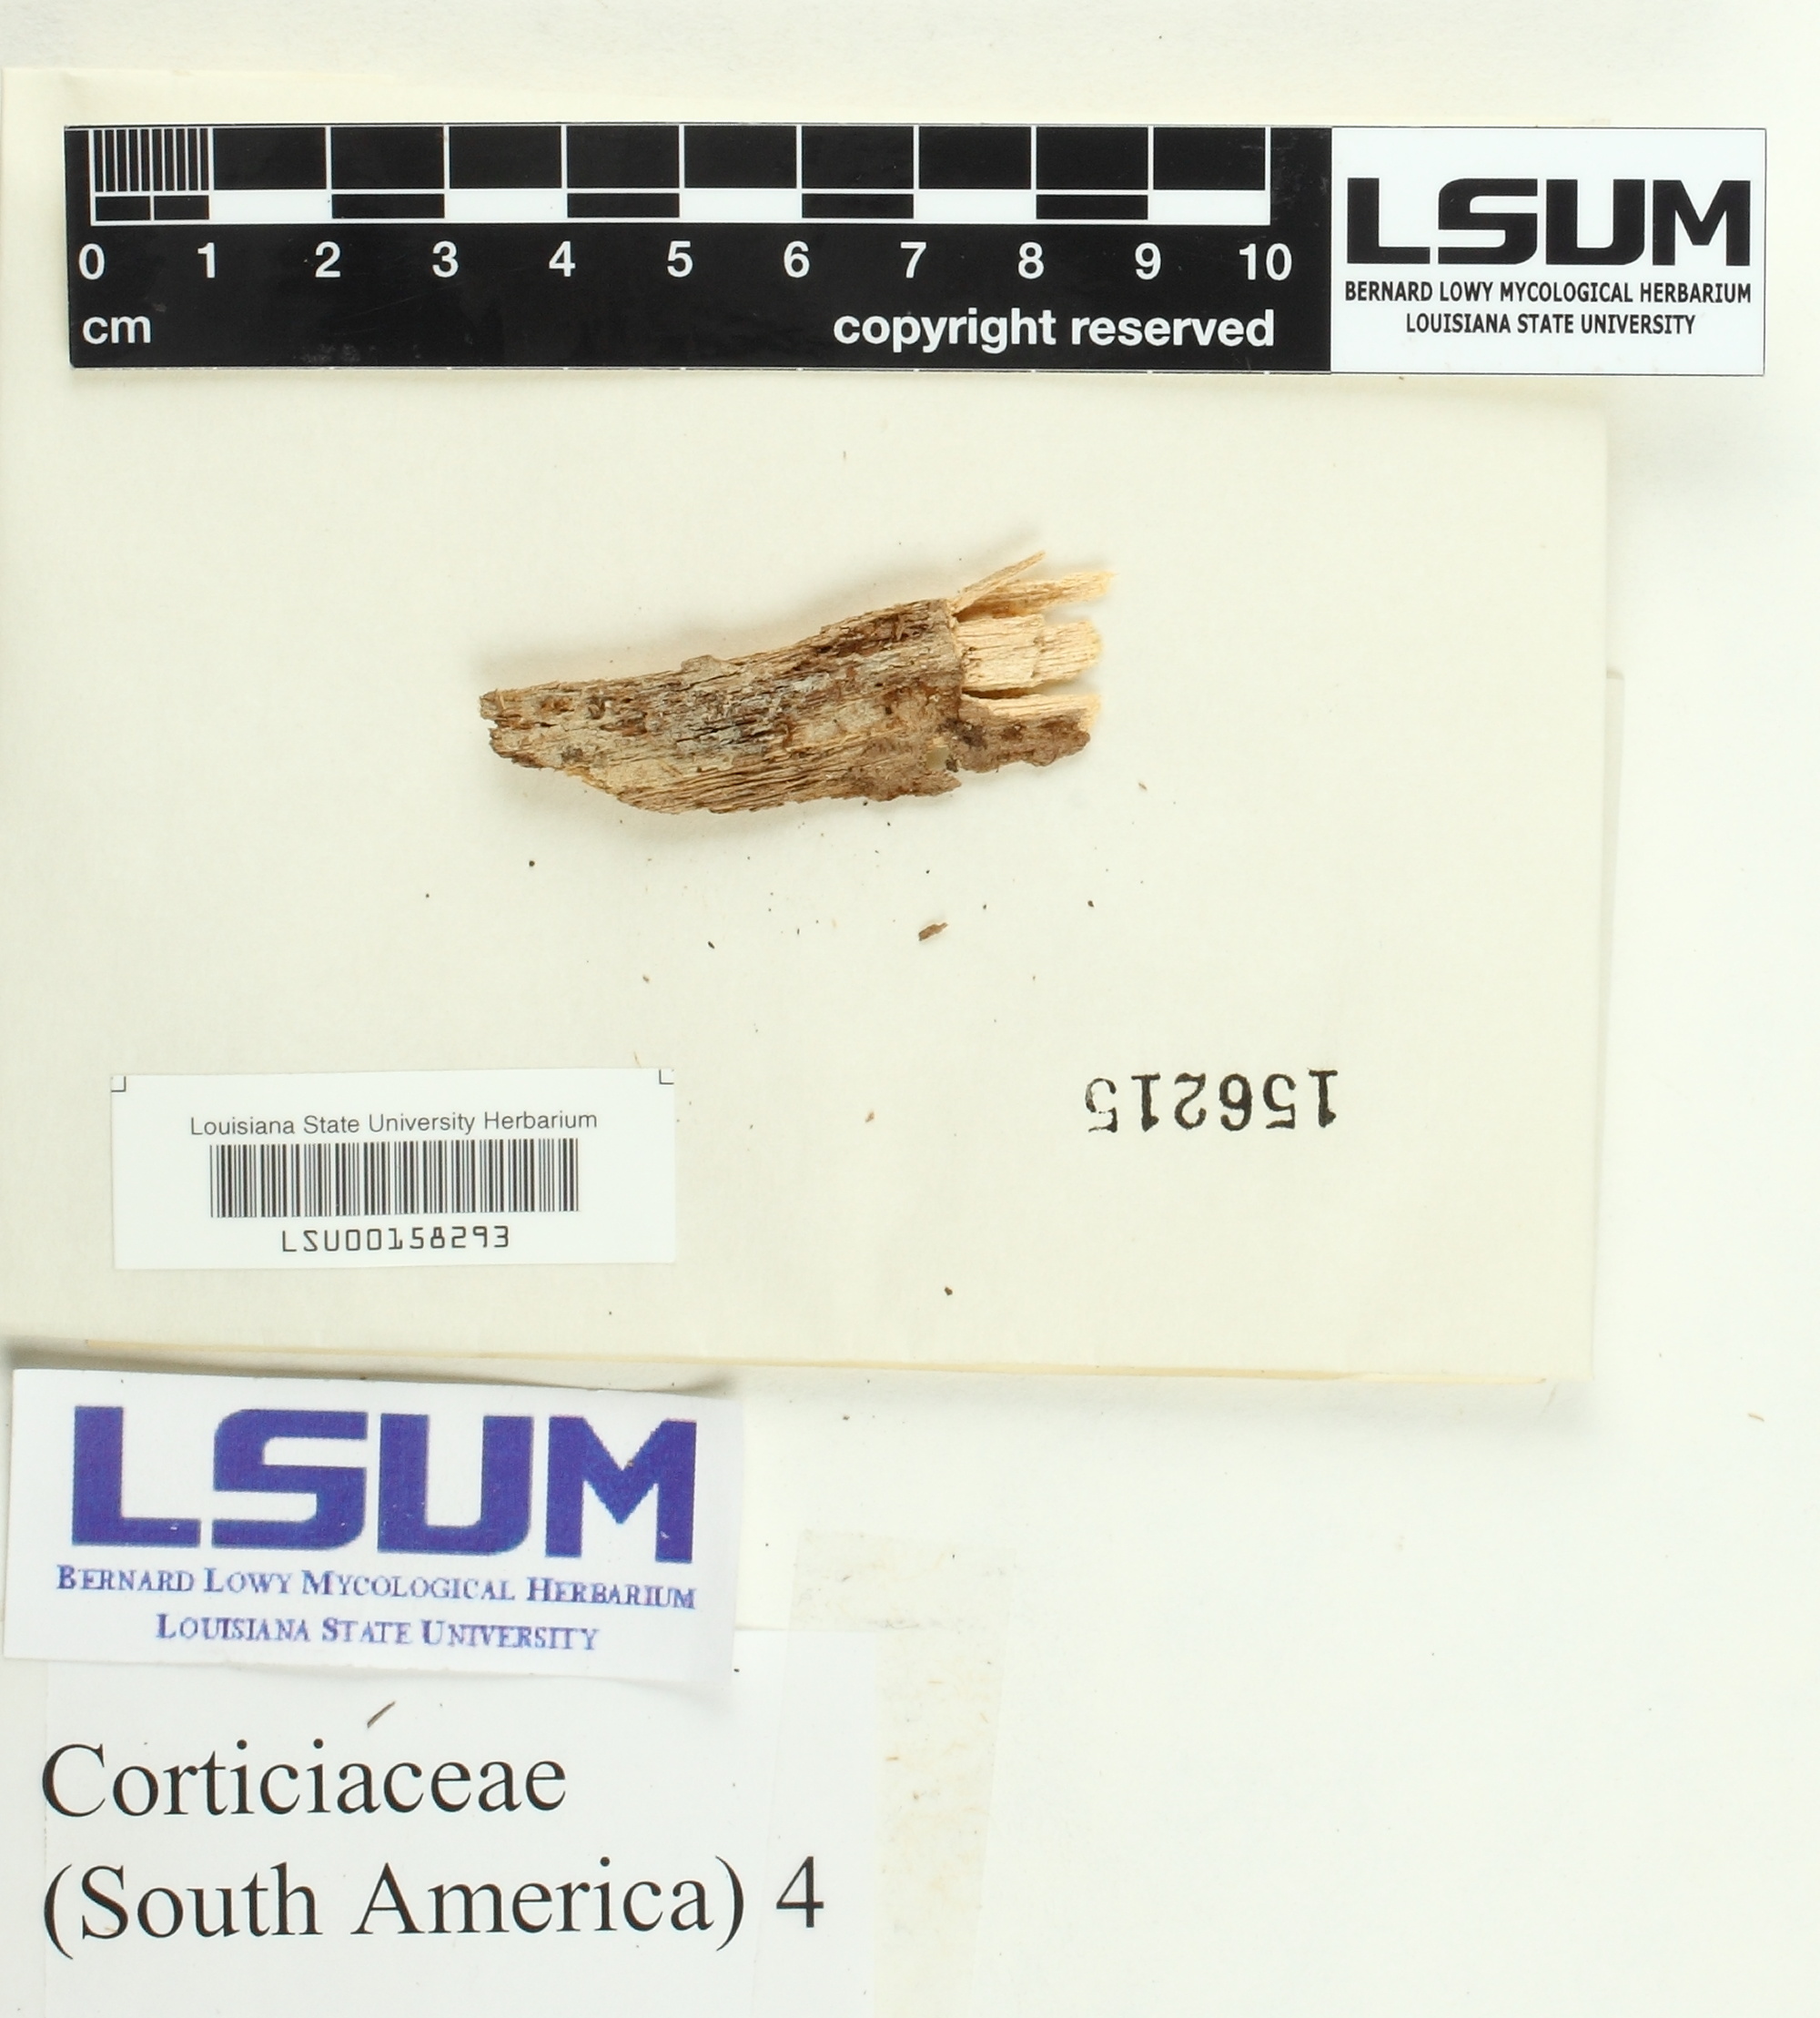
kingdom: Fungi
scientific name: Fungi
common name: Fungi
